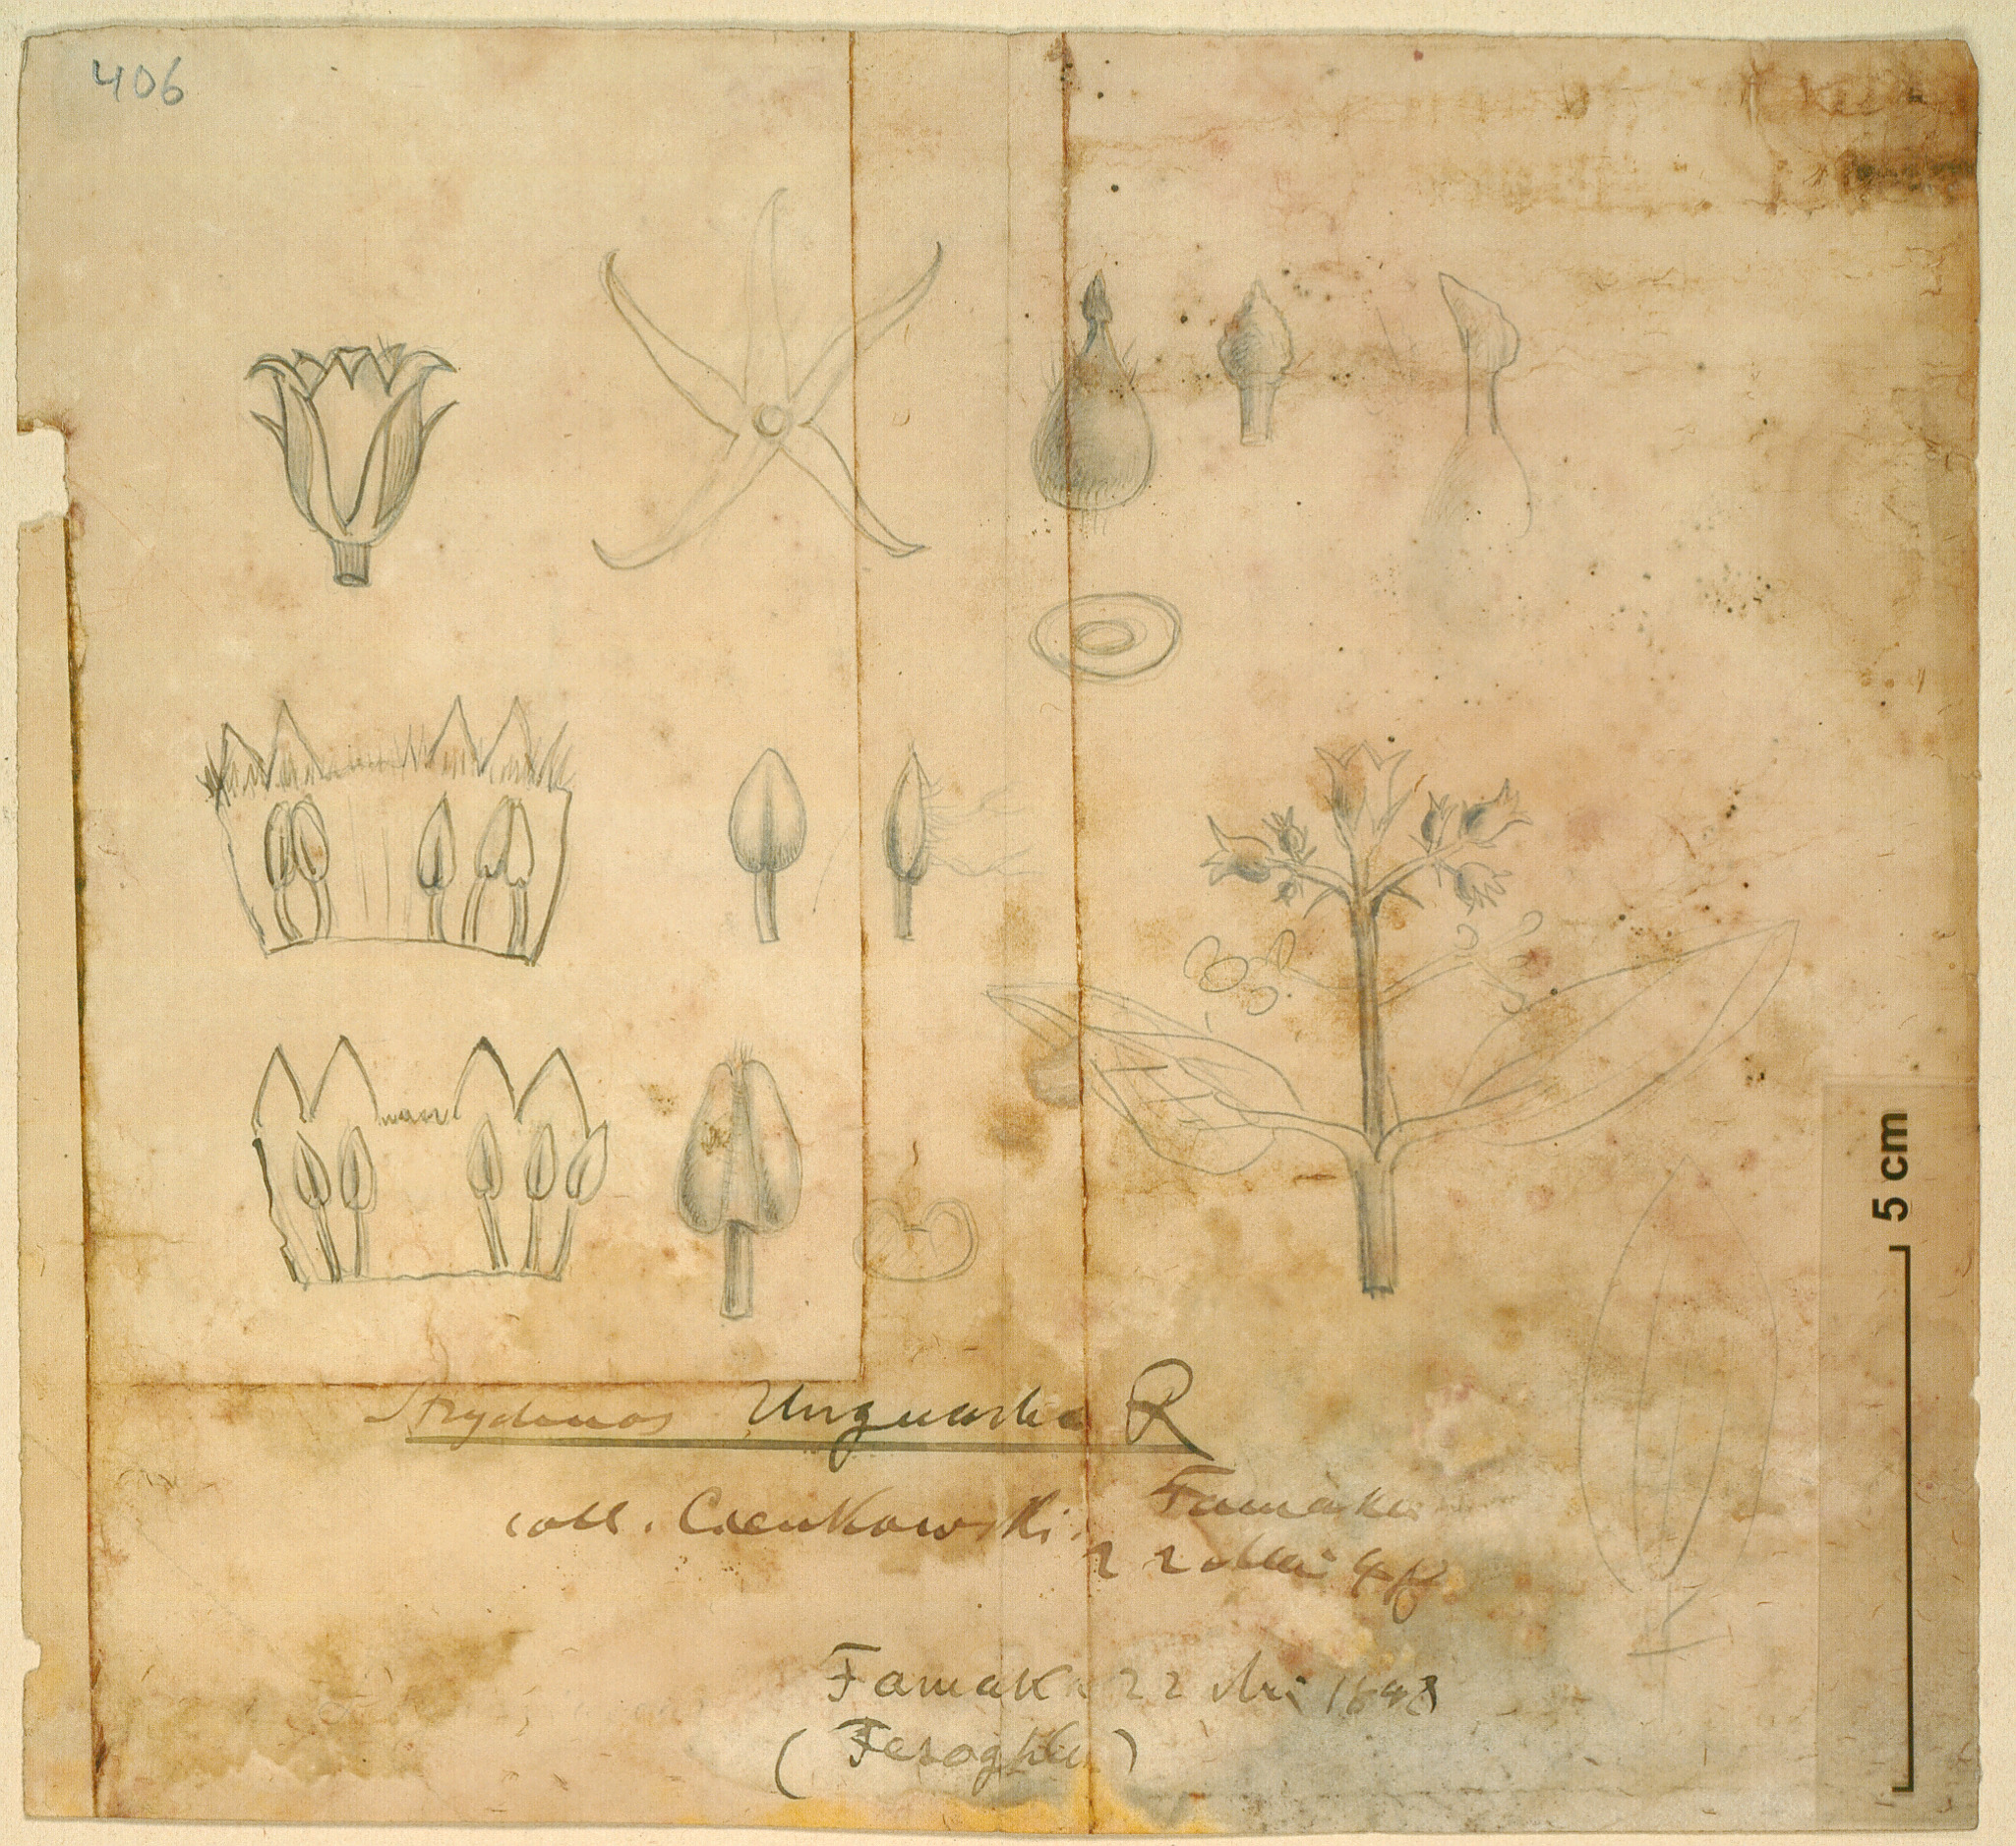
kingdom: Plantae
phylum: Tracheophyta
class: Magnoliopsida
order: Gentianales
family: Loganiaceae
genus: Strychnos
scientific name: Strychnos innocua
